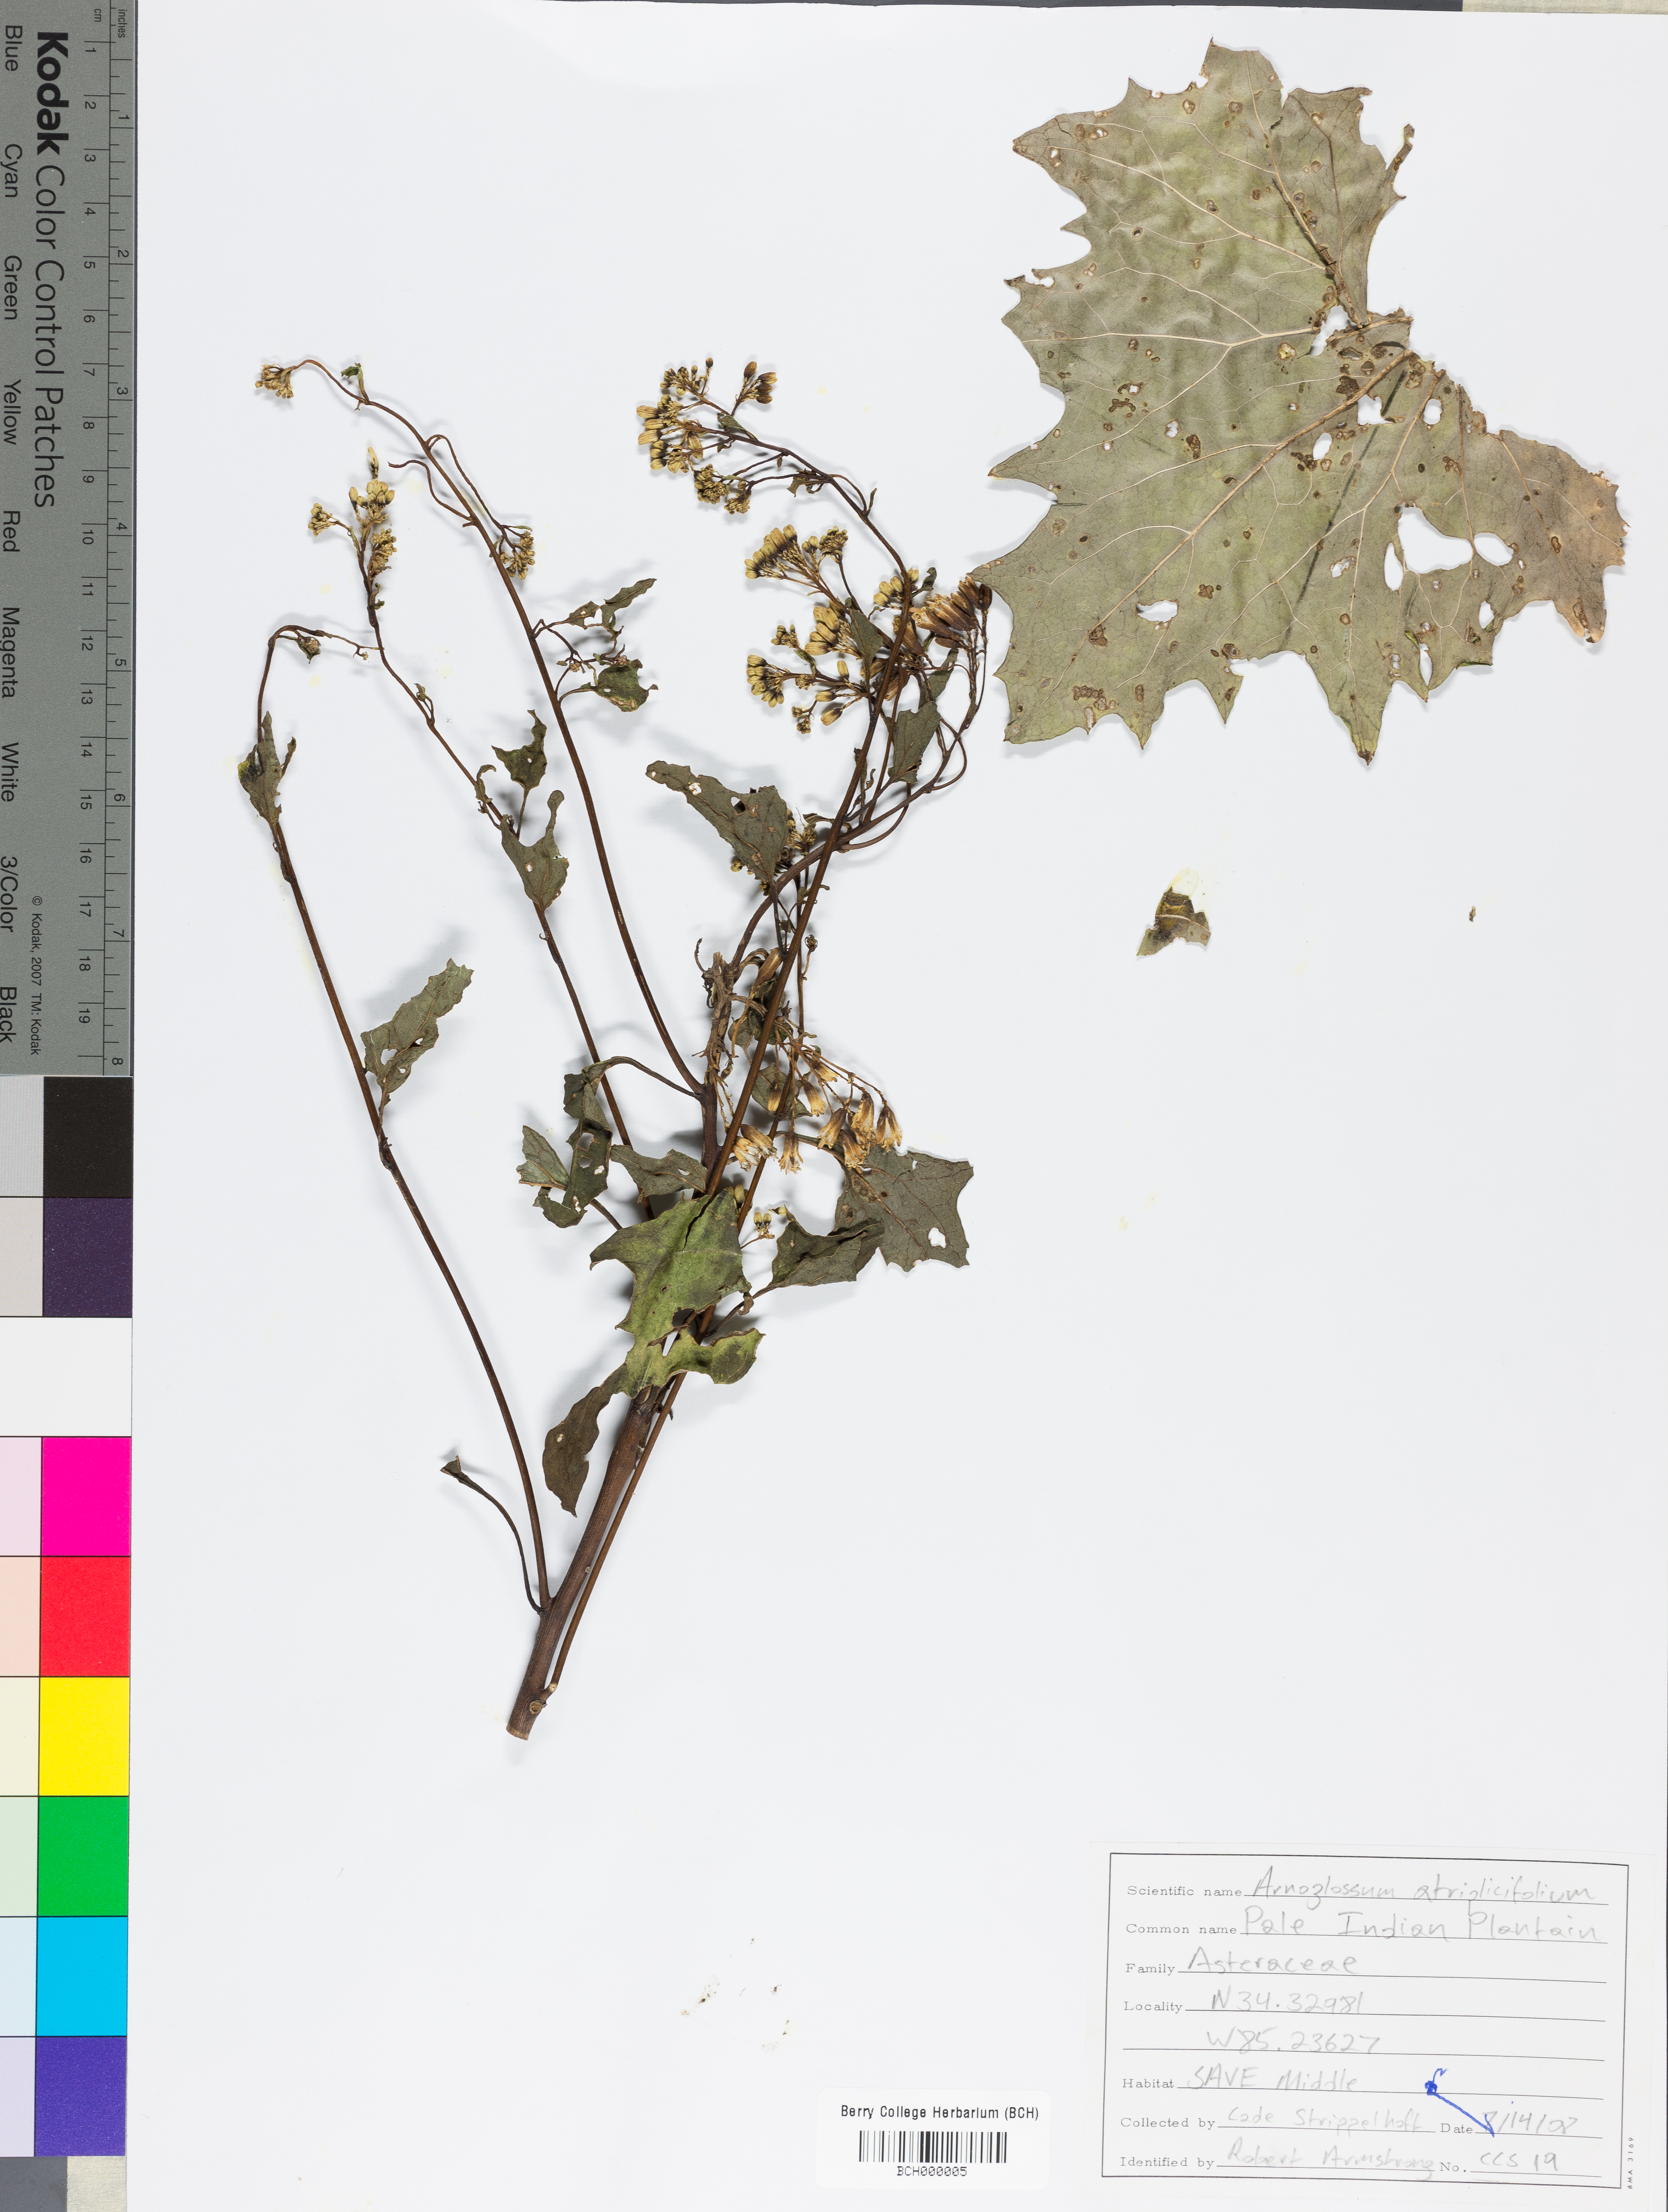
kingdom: Plantae
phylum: Tracheophyta
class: Magnoliopsida
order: Asterales
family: Asteraceae
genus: Arnoglossum
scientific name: Arnoglossum atriplicifolium
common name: Pale indian-plantain
